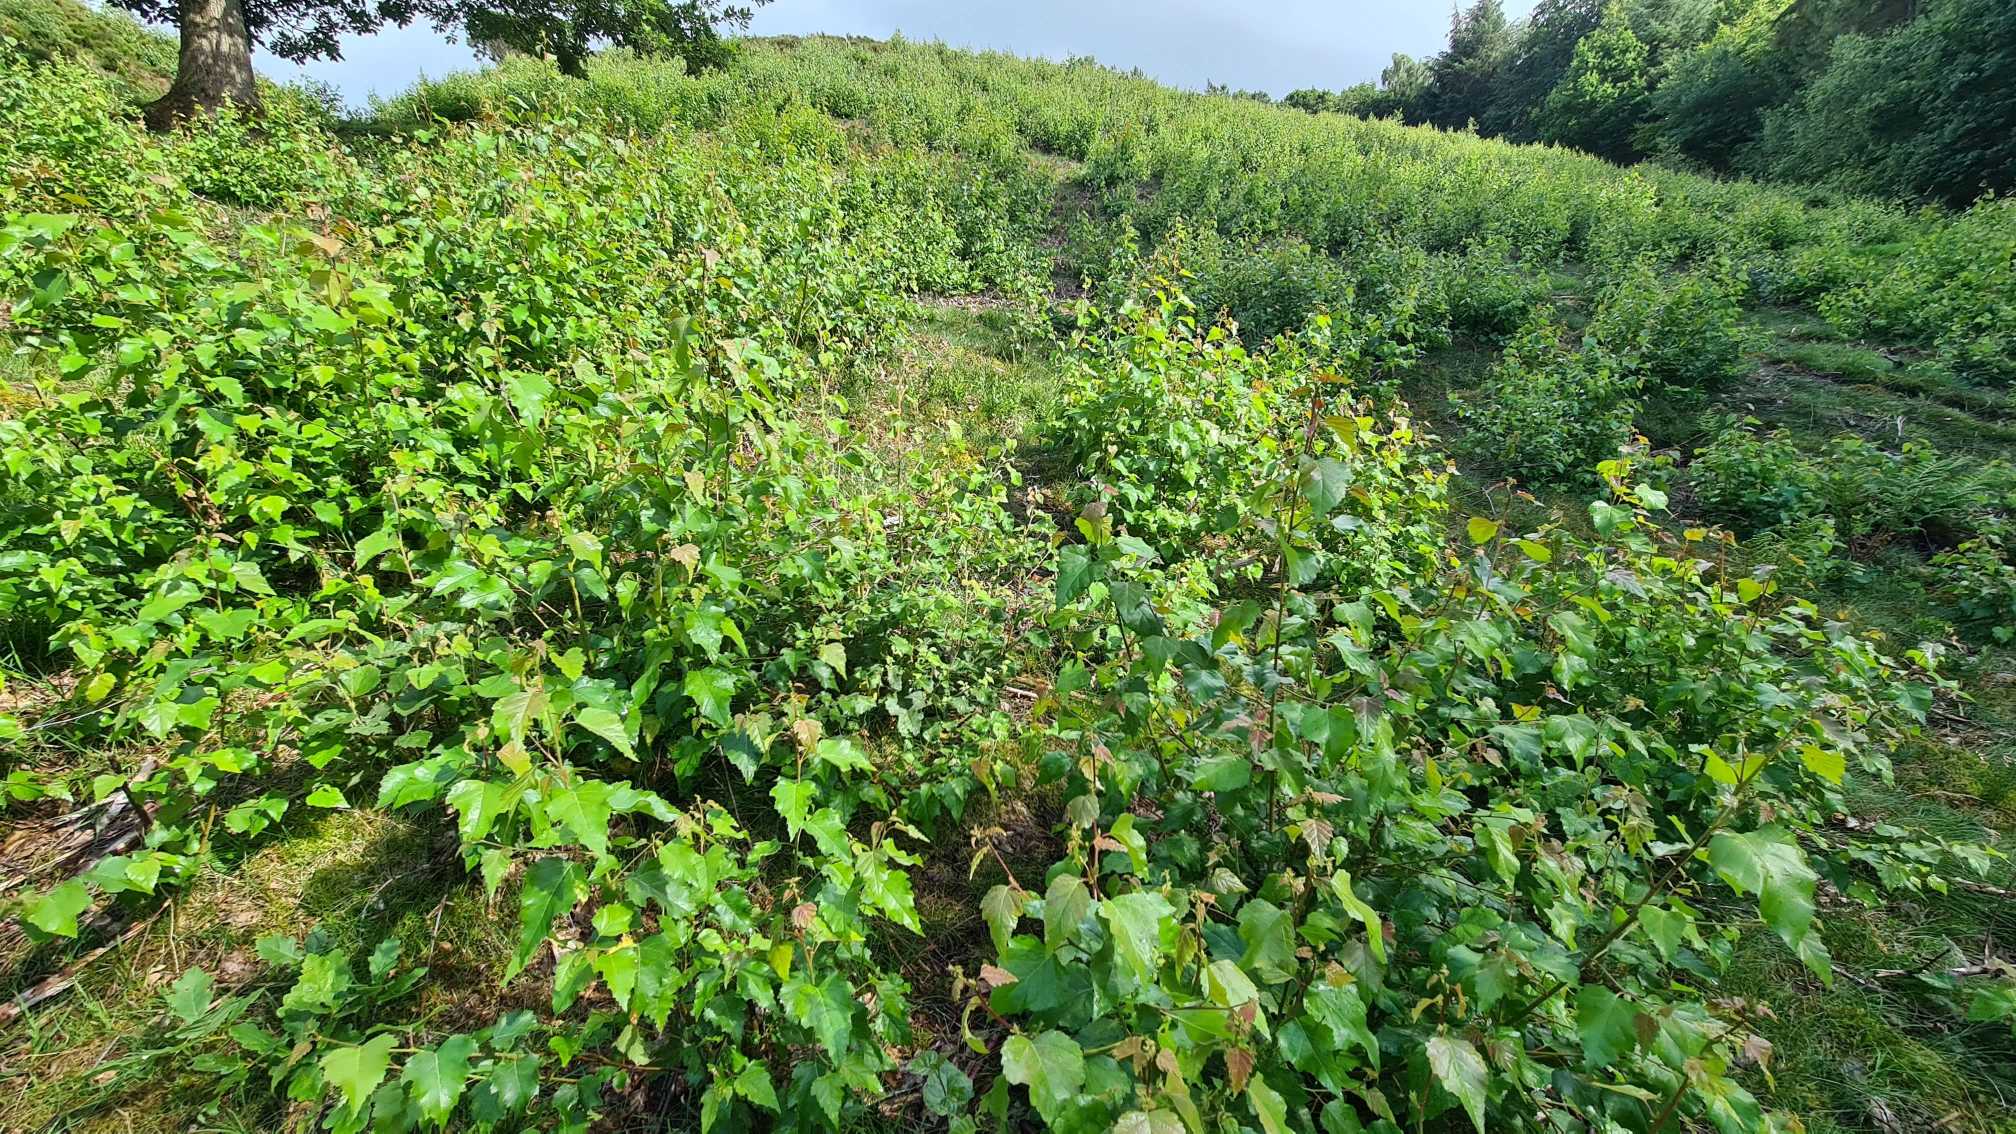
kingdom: Plantae
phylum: Tracheophyta
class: Magnoliopsida
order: Fagales
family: Betulaceae
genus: Betula
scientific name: Betula pendula
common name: Vorte-birk
